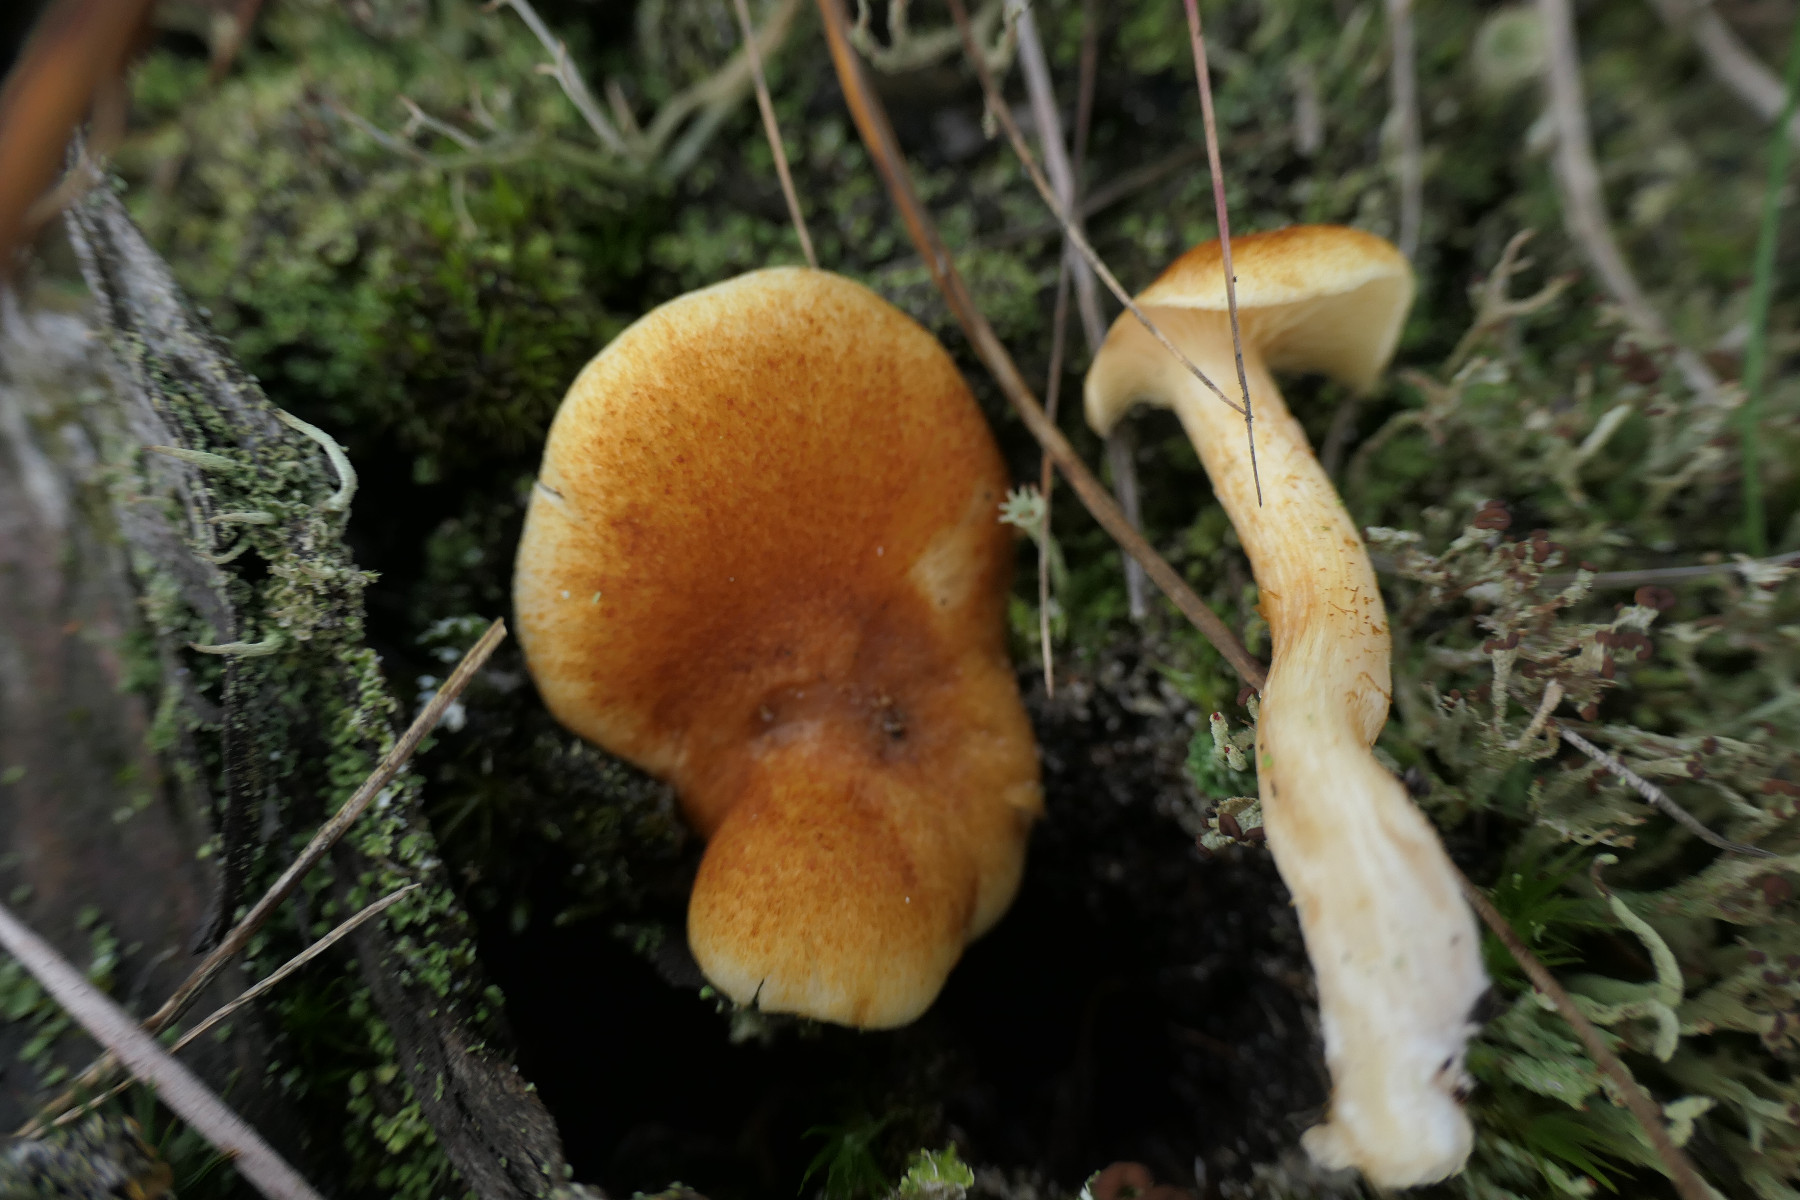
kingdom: Fungi
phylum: Basidiomycota
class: Agaricomycetes
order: Agaricales
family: Hymenogastraceae
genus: Gymnopilus
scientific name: Gymnopilus penetrans
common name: plettet flammehat
